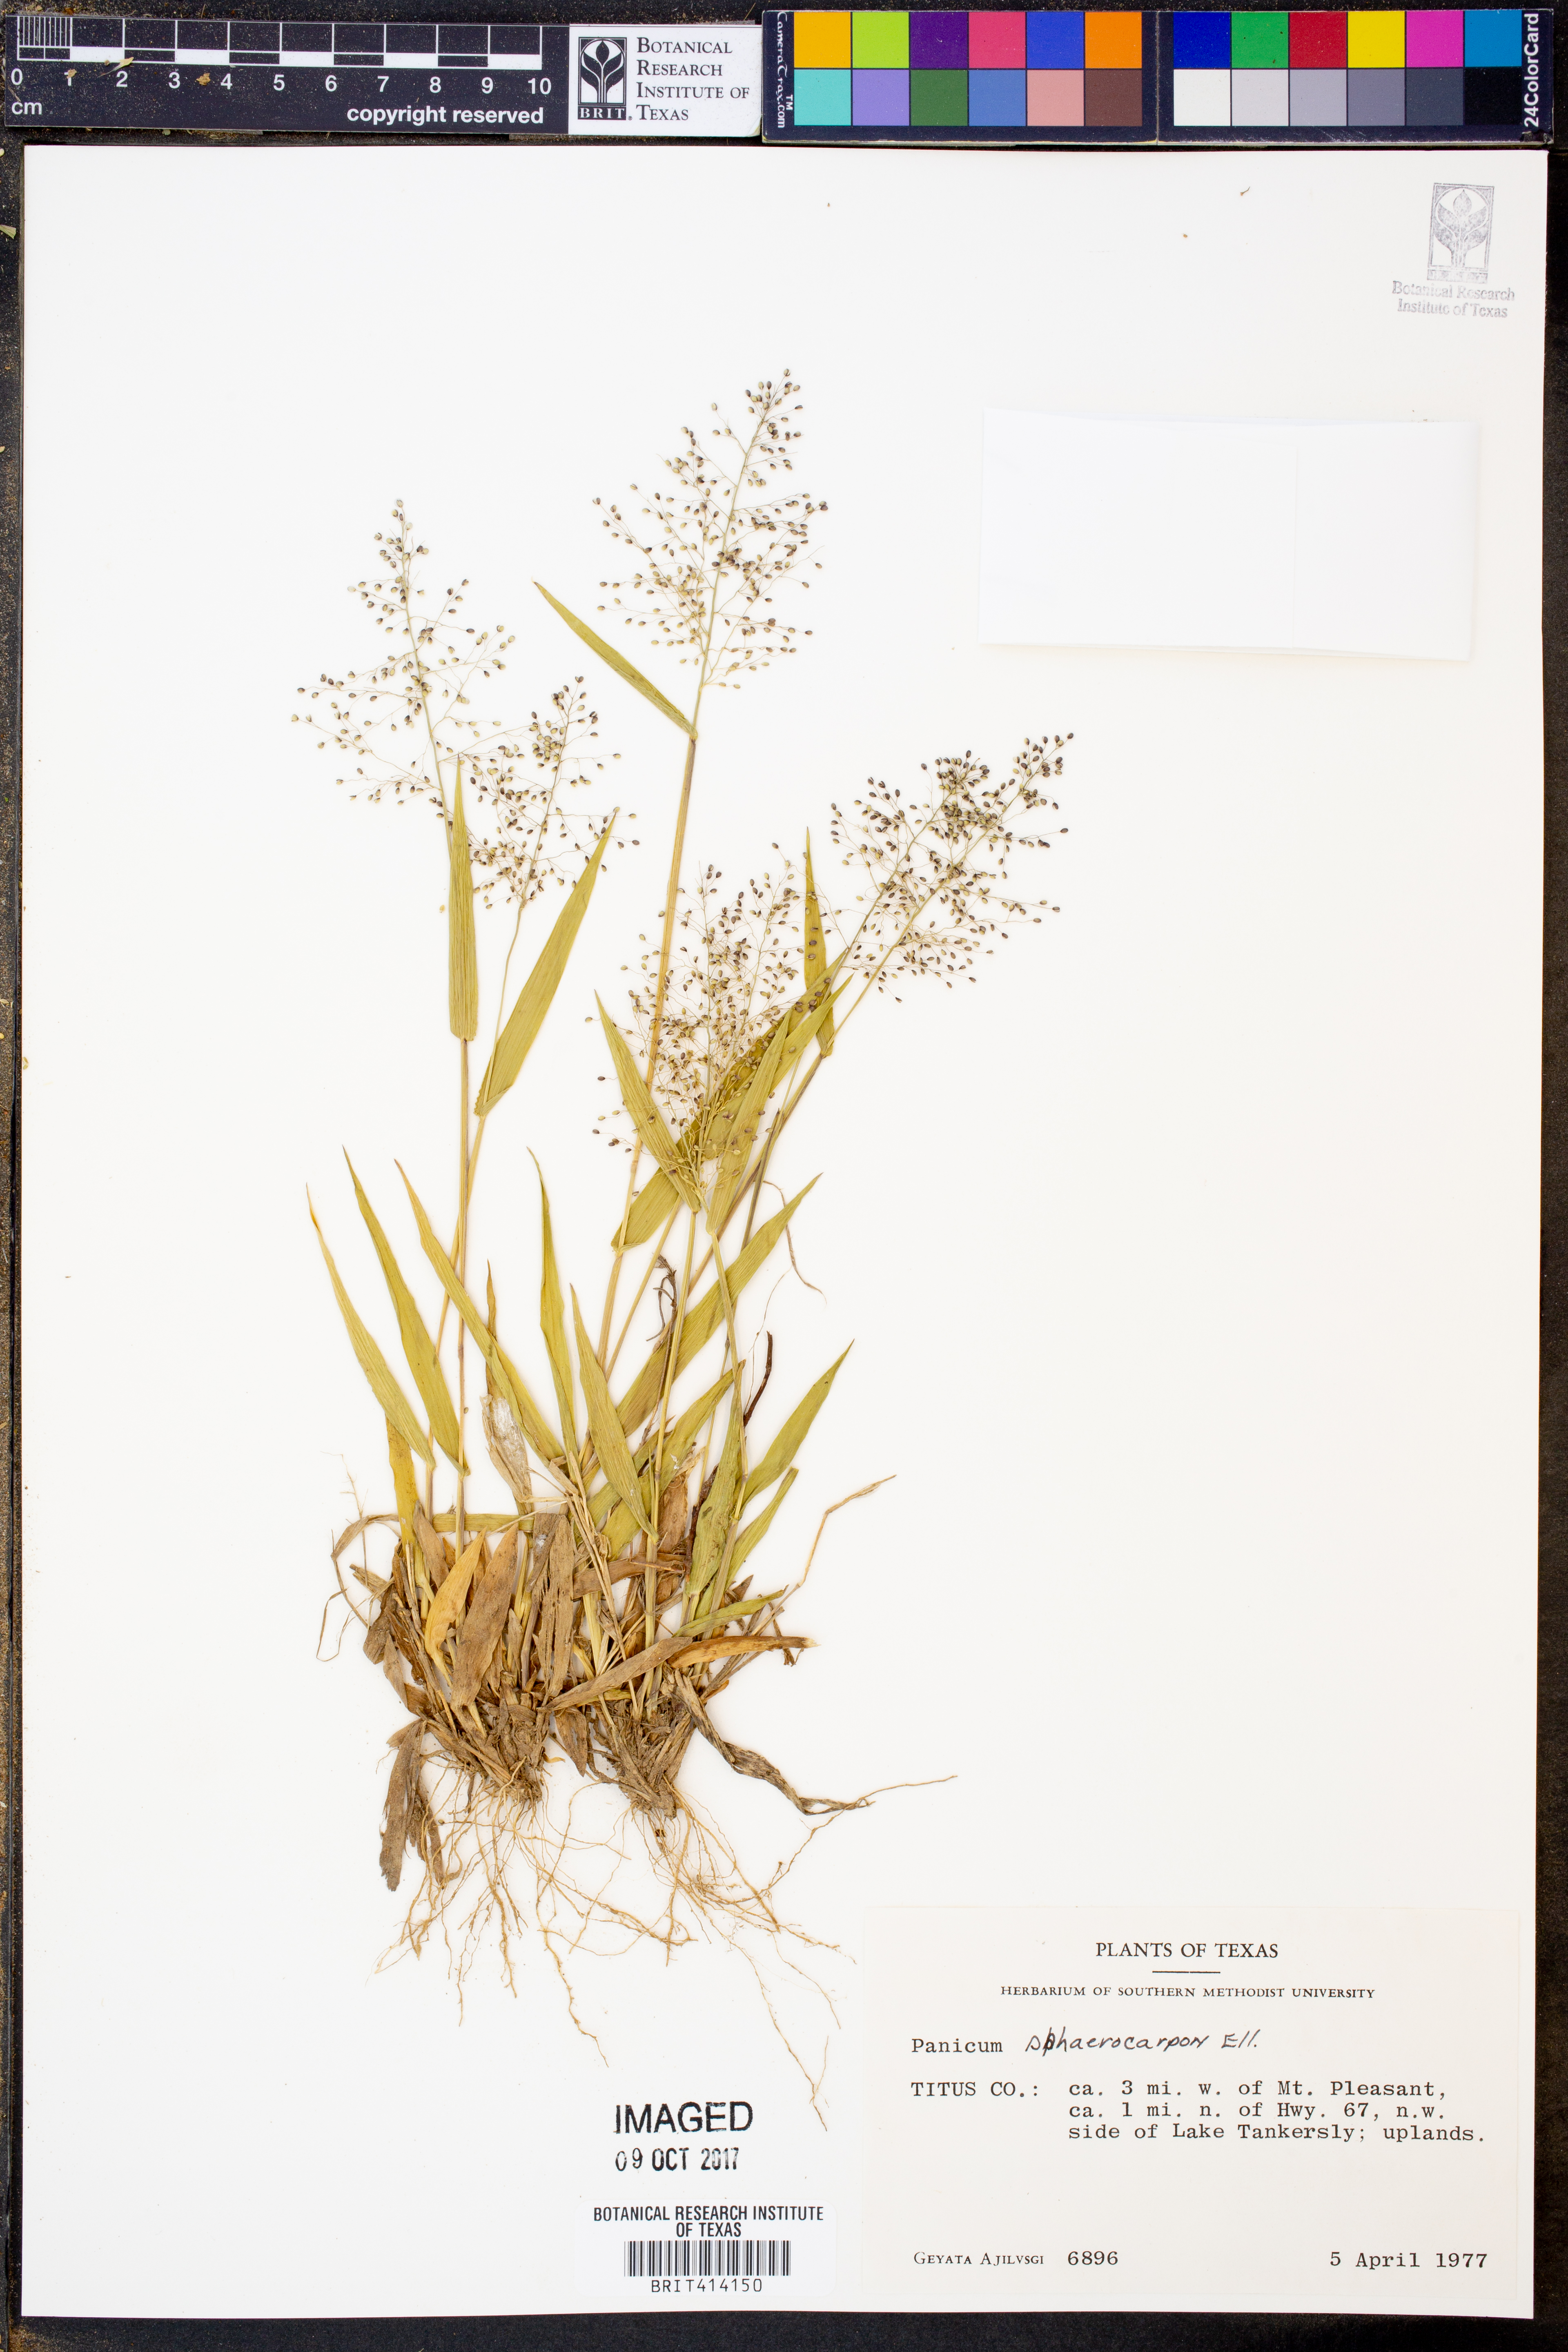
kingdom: Plantae
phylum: Tracheophyta
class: Liliopsida
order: Poales
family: Poaceae
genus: Dichanthelium
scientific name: Dichanthelium sphaerocarpon
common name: Round-fruited panicgrass
